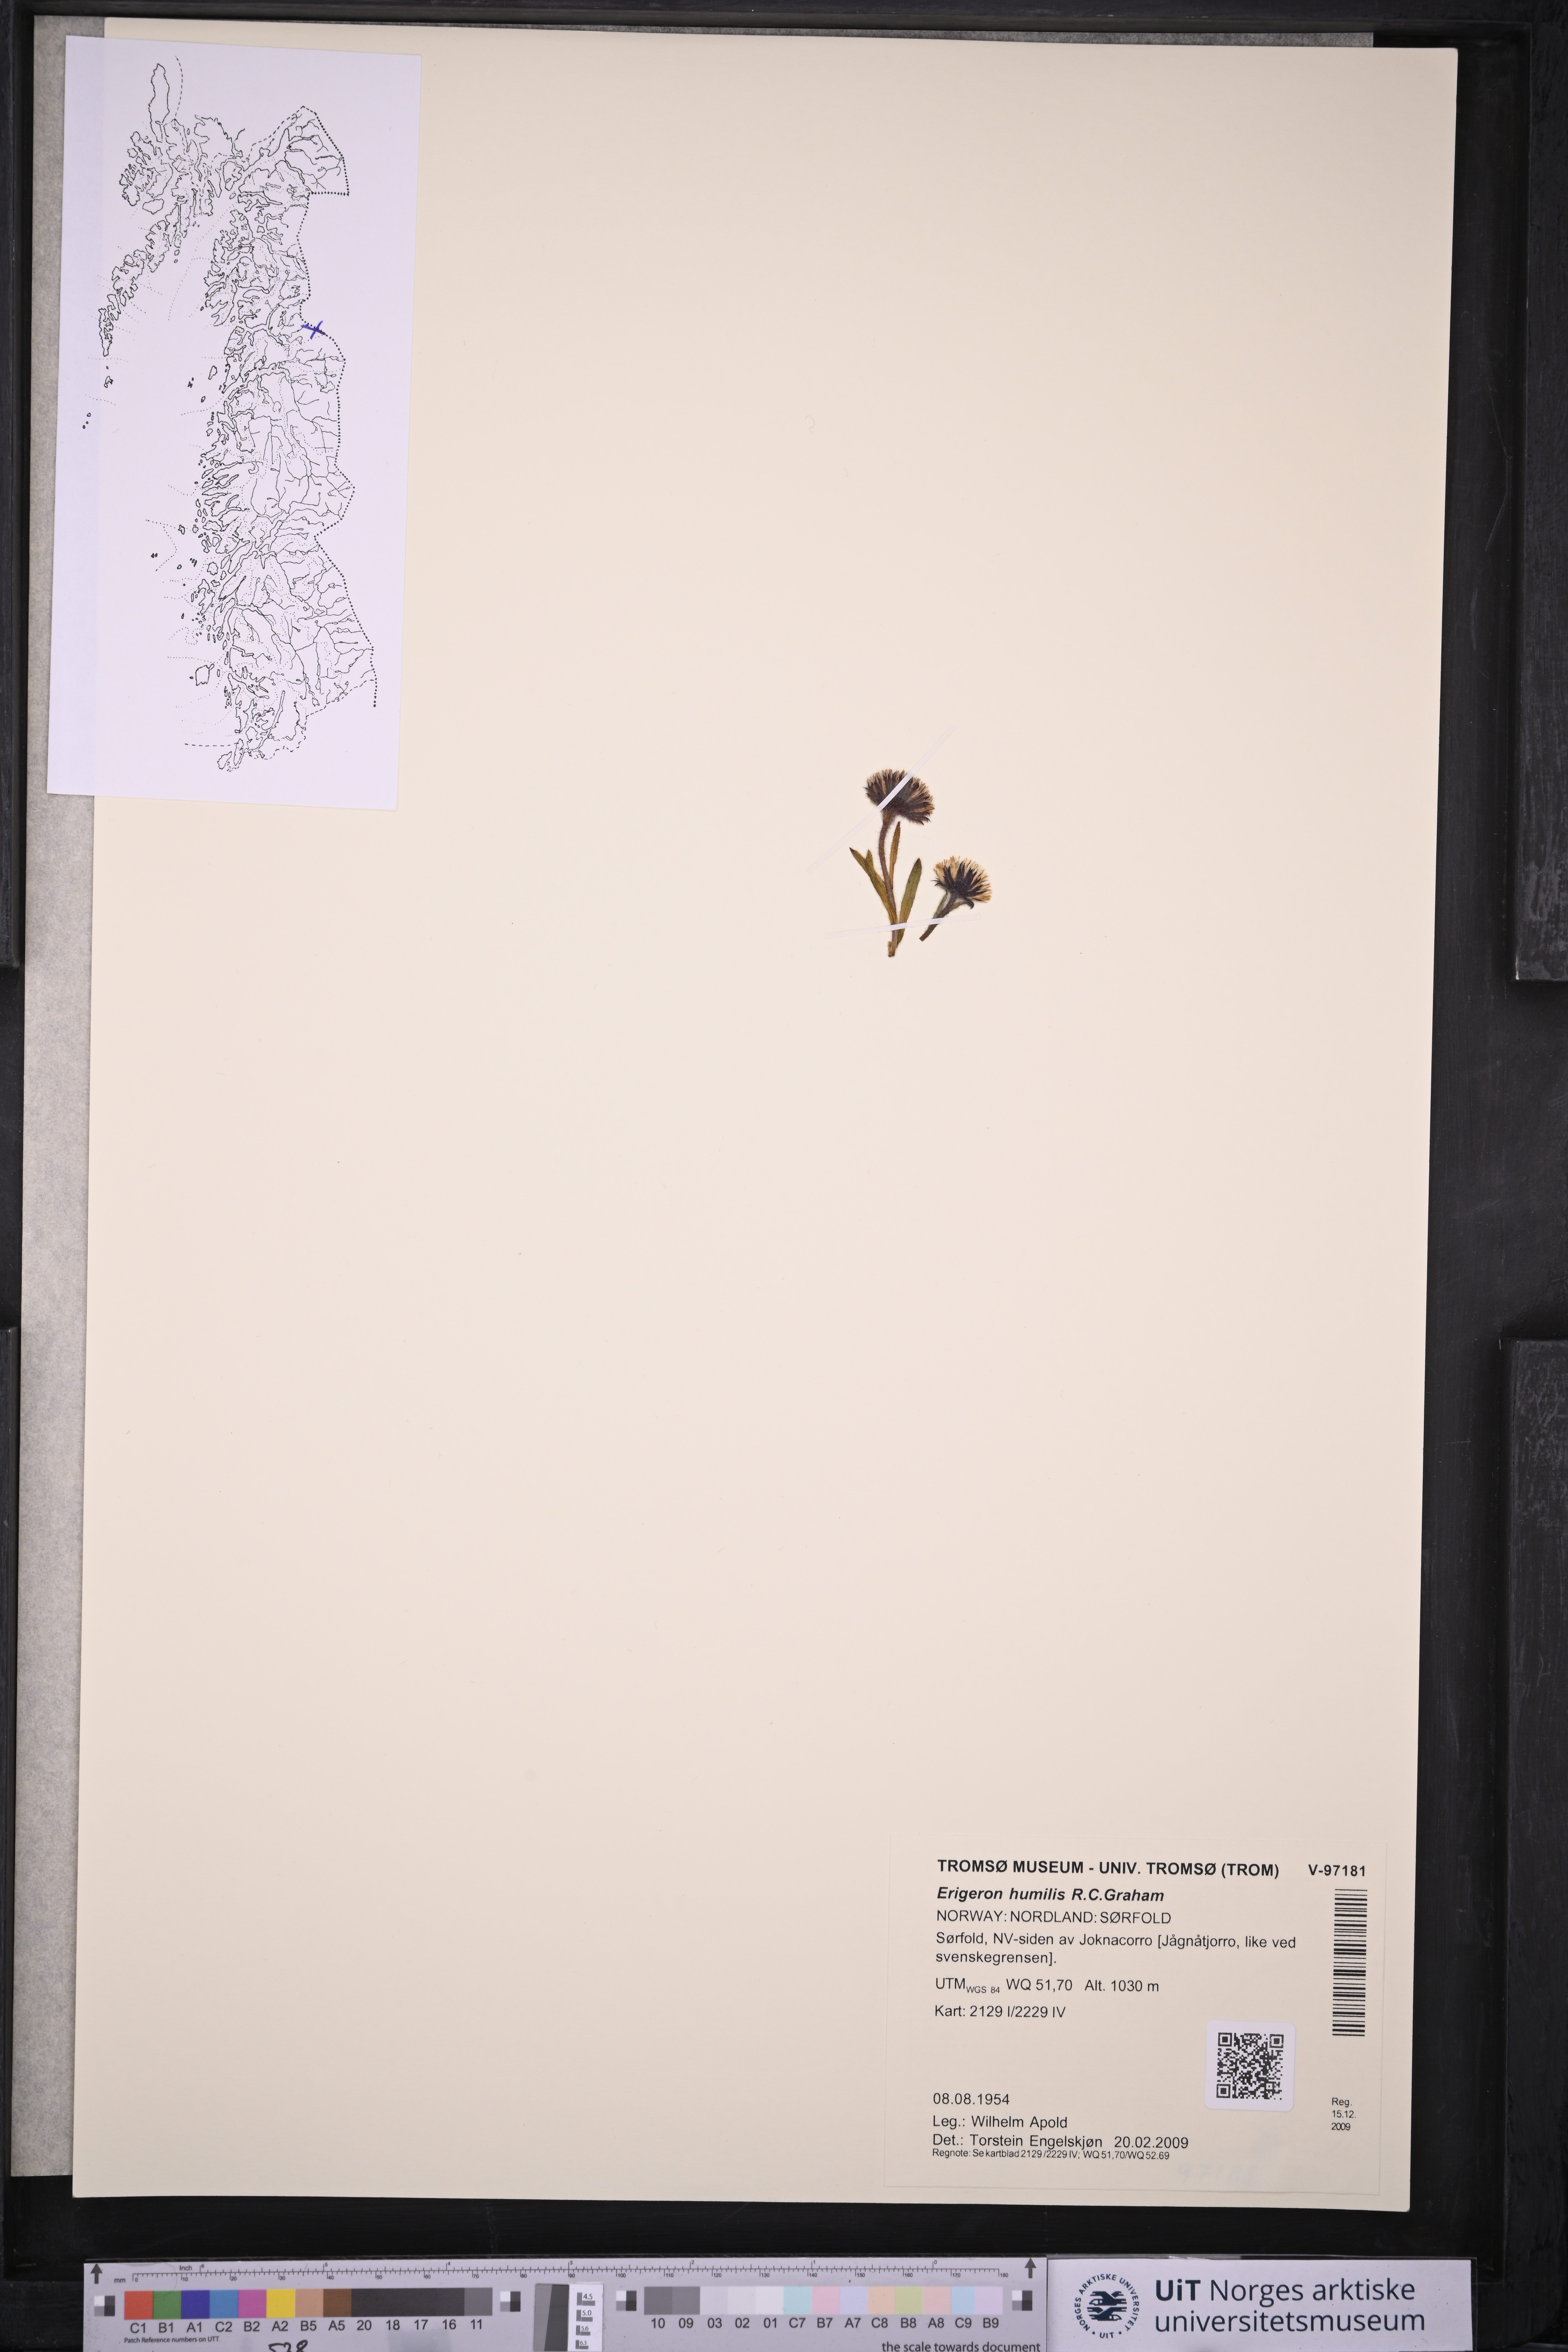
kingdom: Plantae
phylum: Tracheophyta
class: Magnoliopsida
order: Asterales
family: Asteraceae
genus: Erigeron
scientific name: Erigeron humilis
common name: Arctic-alpine fleabane
